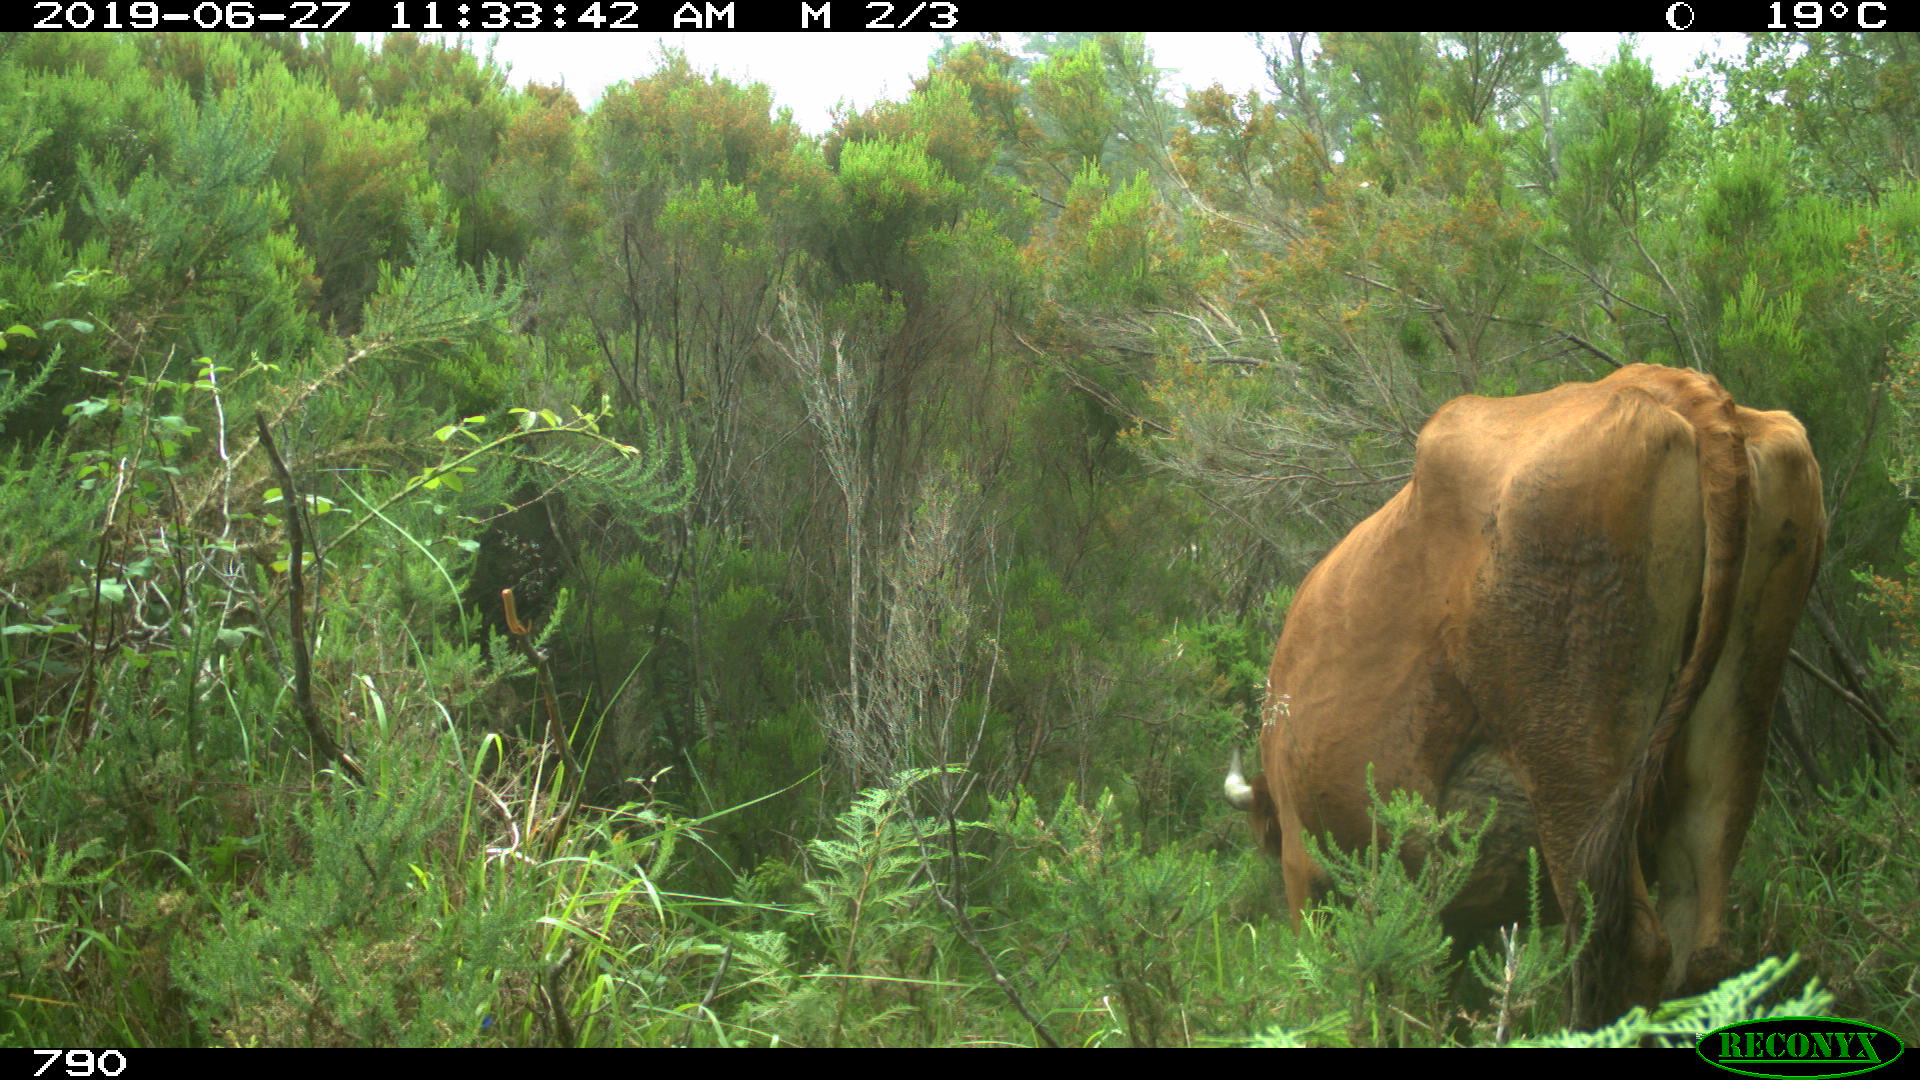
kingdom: Animalia
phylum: Chordata
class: Mammalia
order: Artiodactyla
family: Bovidae
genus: Bos
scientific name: Bos taurus
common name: Domesticated cattle
